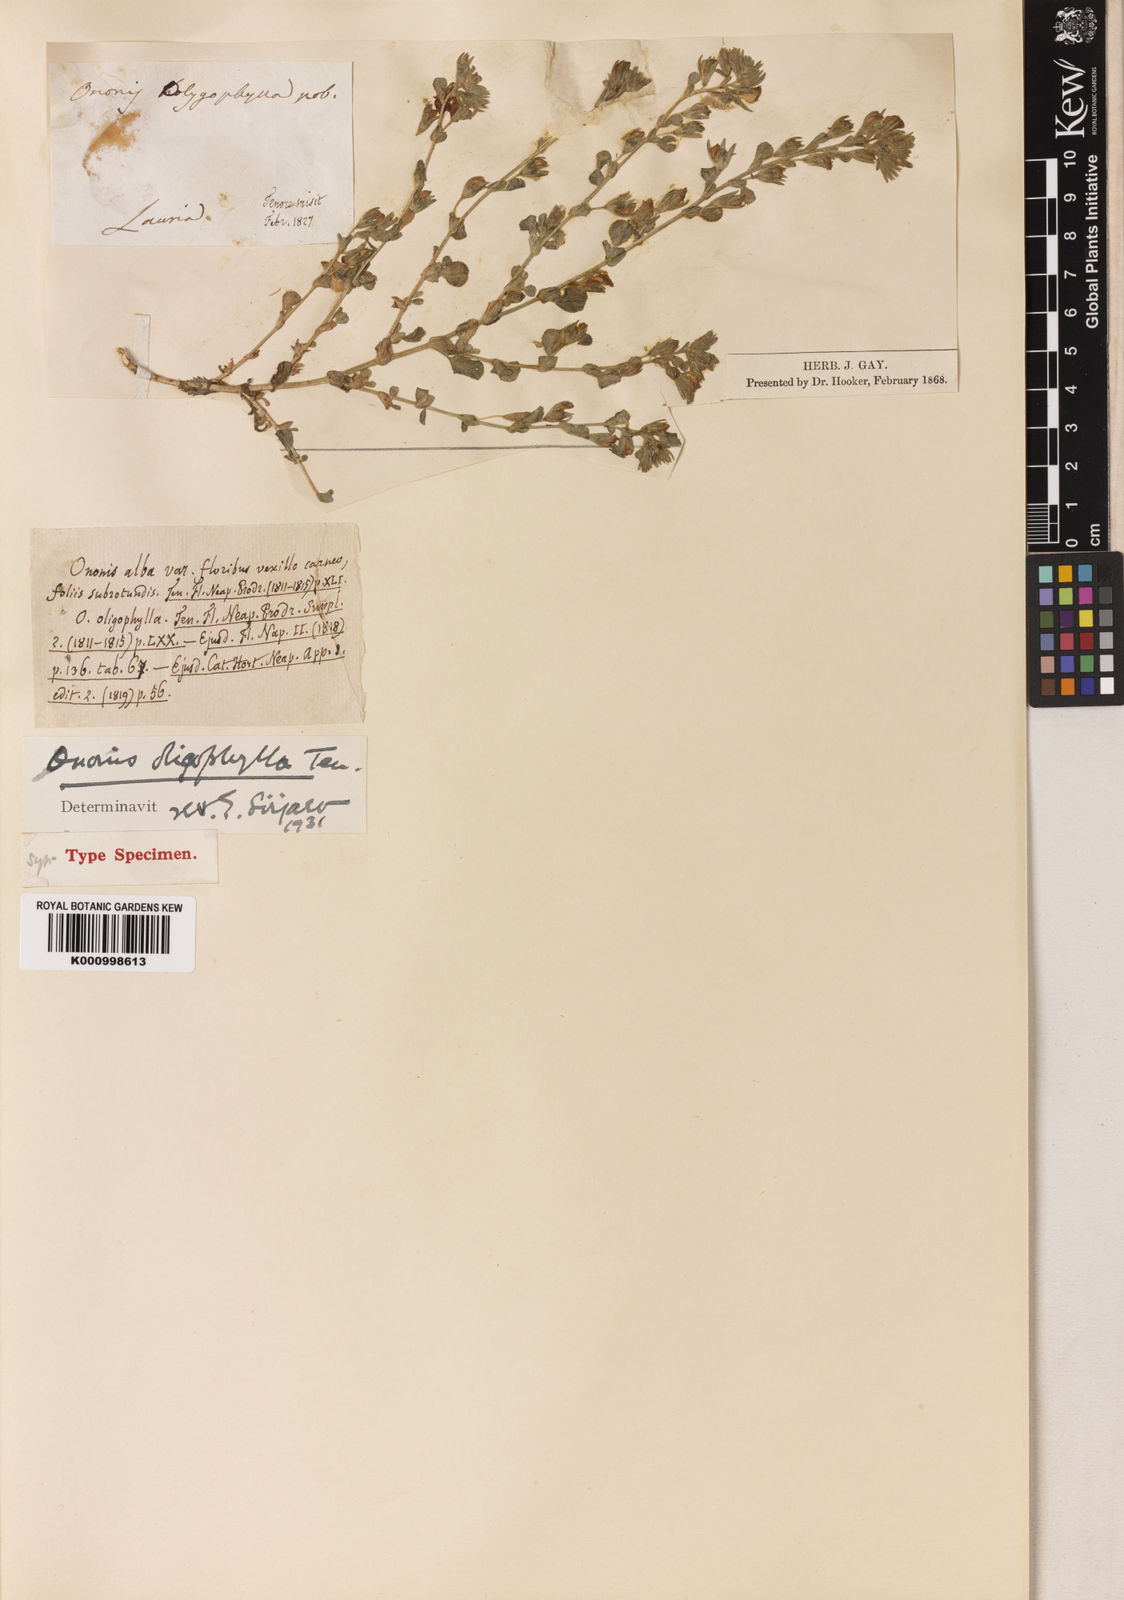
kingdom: Plantae
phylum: Tracheophyta
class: Magnoliopsida
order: Fabales
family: Fabaceae
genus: Ononis
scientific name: Ononis oligophylla
